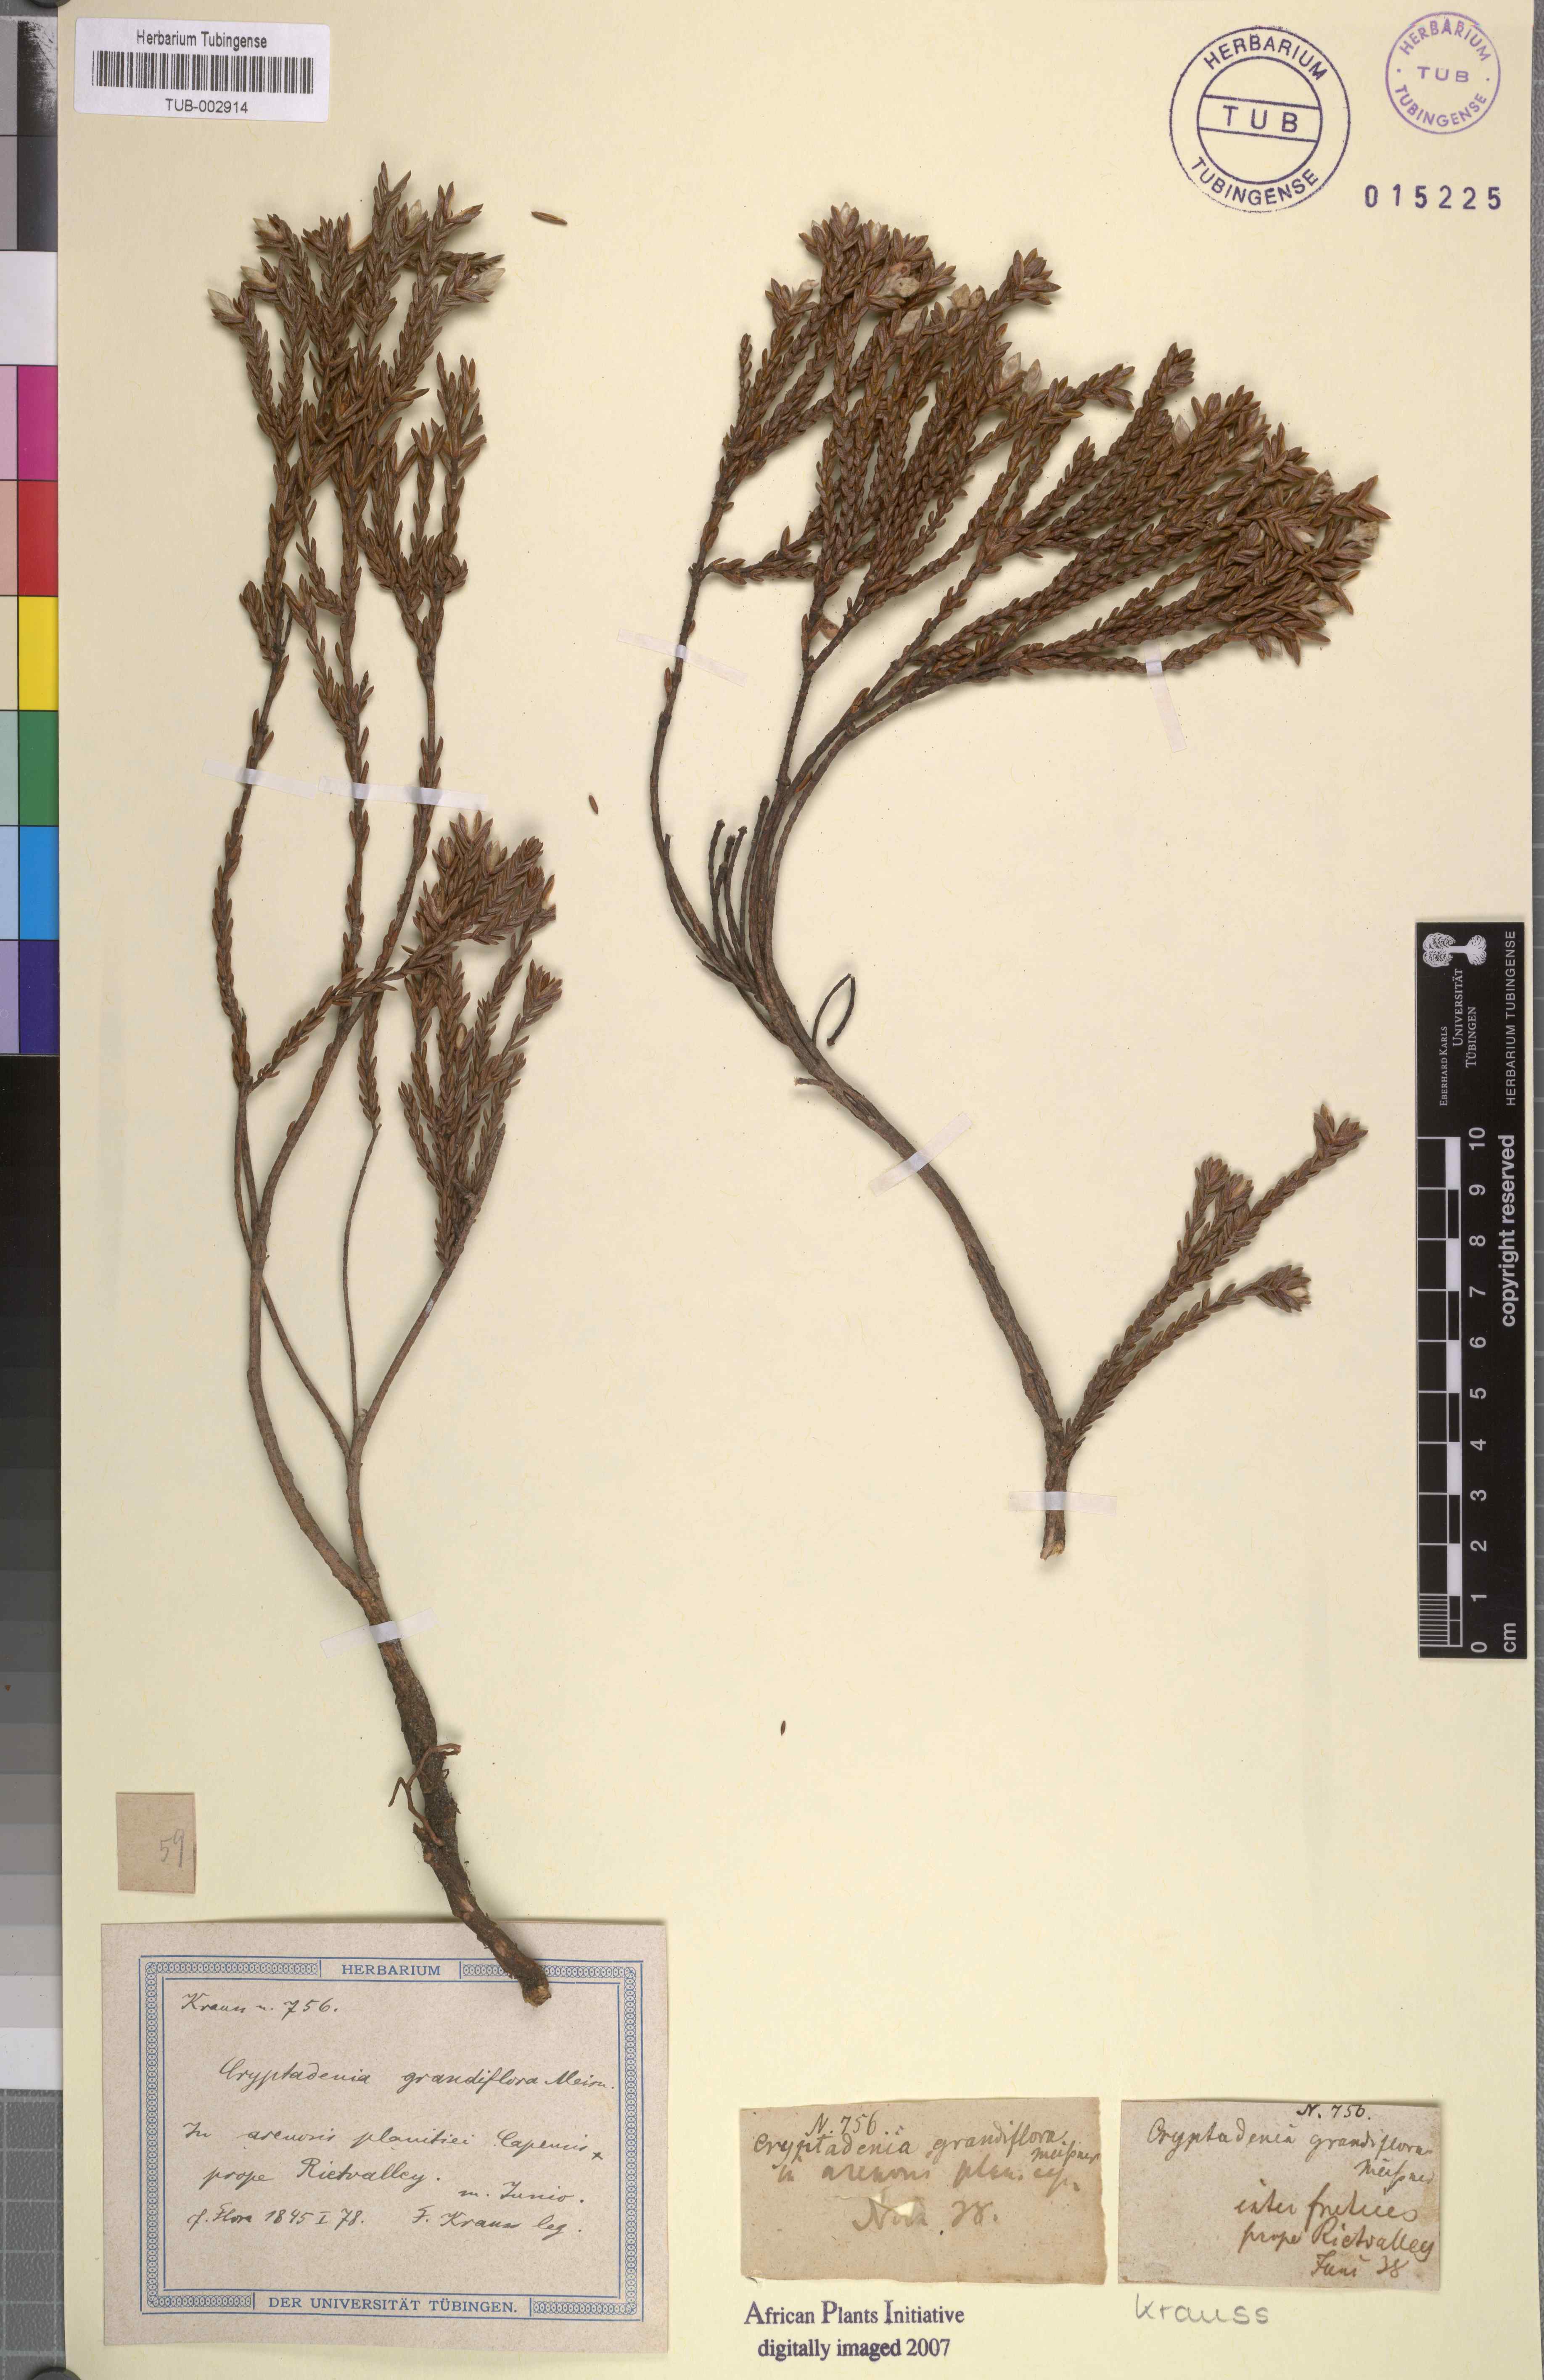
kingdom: Plantae
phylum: Tracheophyta
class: Magnoliopsida
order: Malvales
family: Thymelaeaceae
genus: Lachnaea
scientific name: Lachnaea grandiflora
